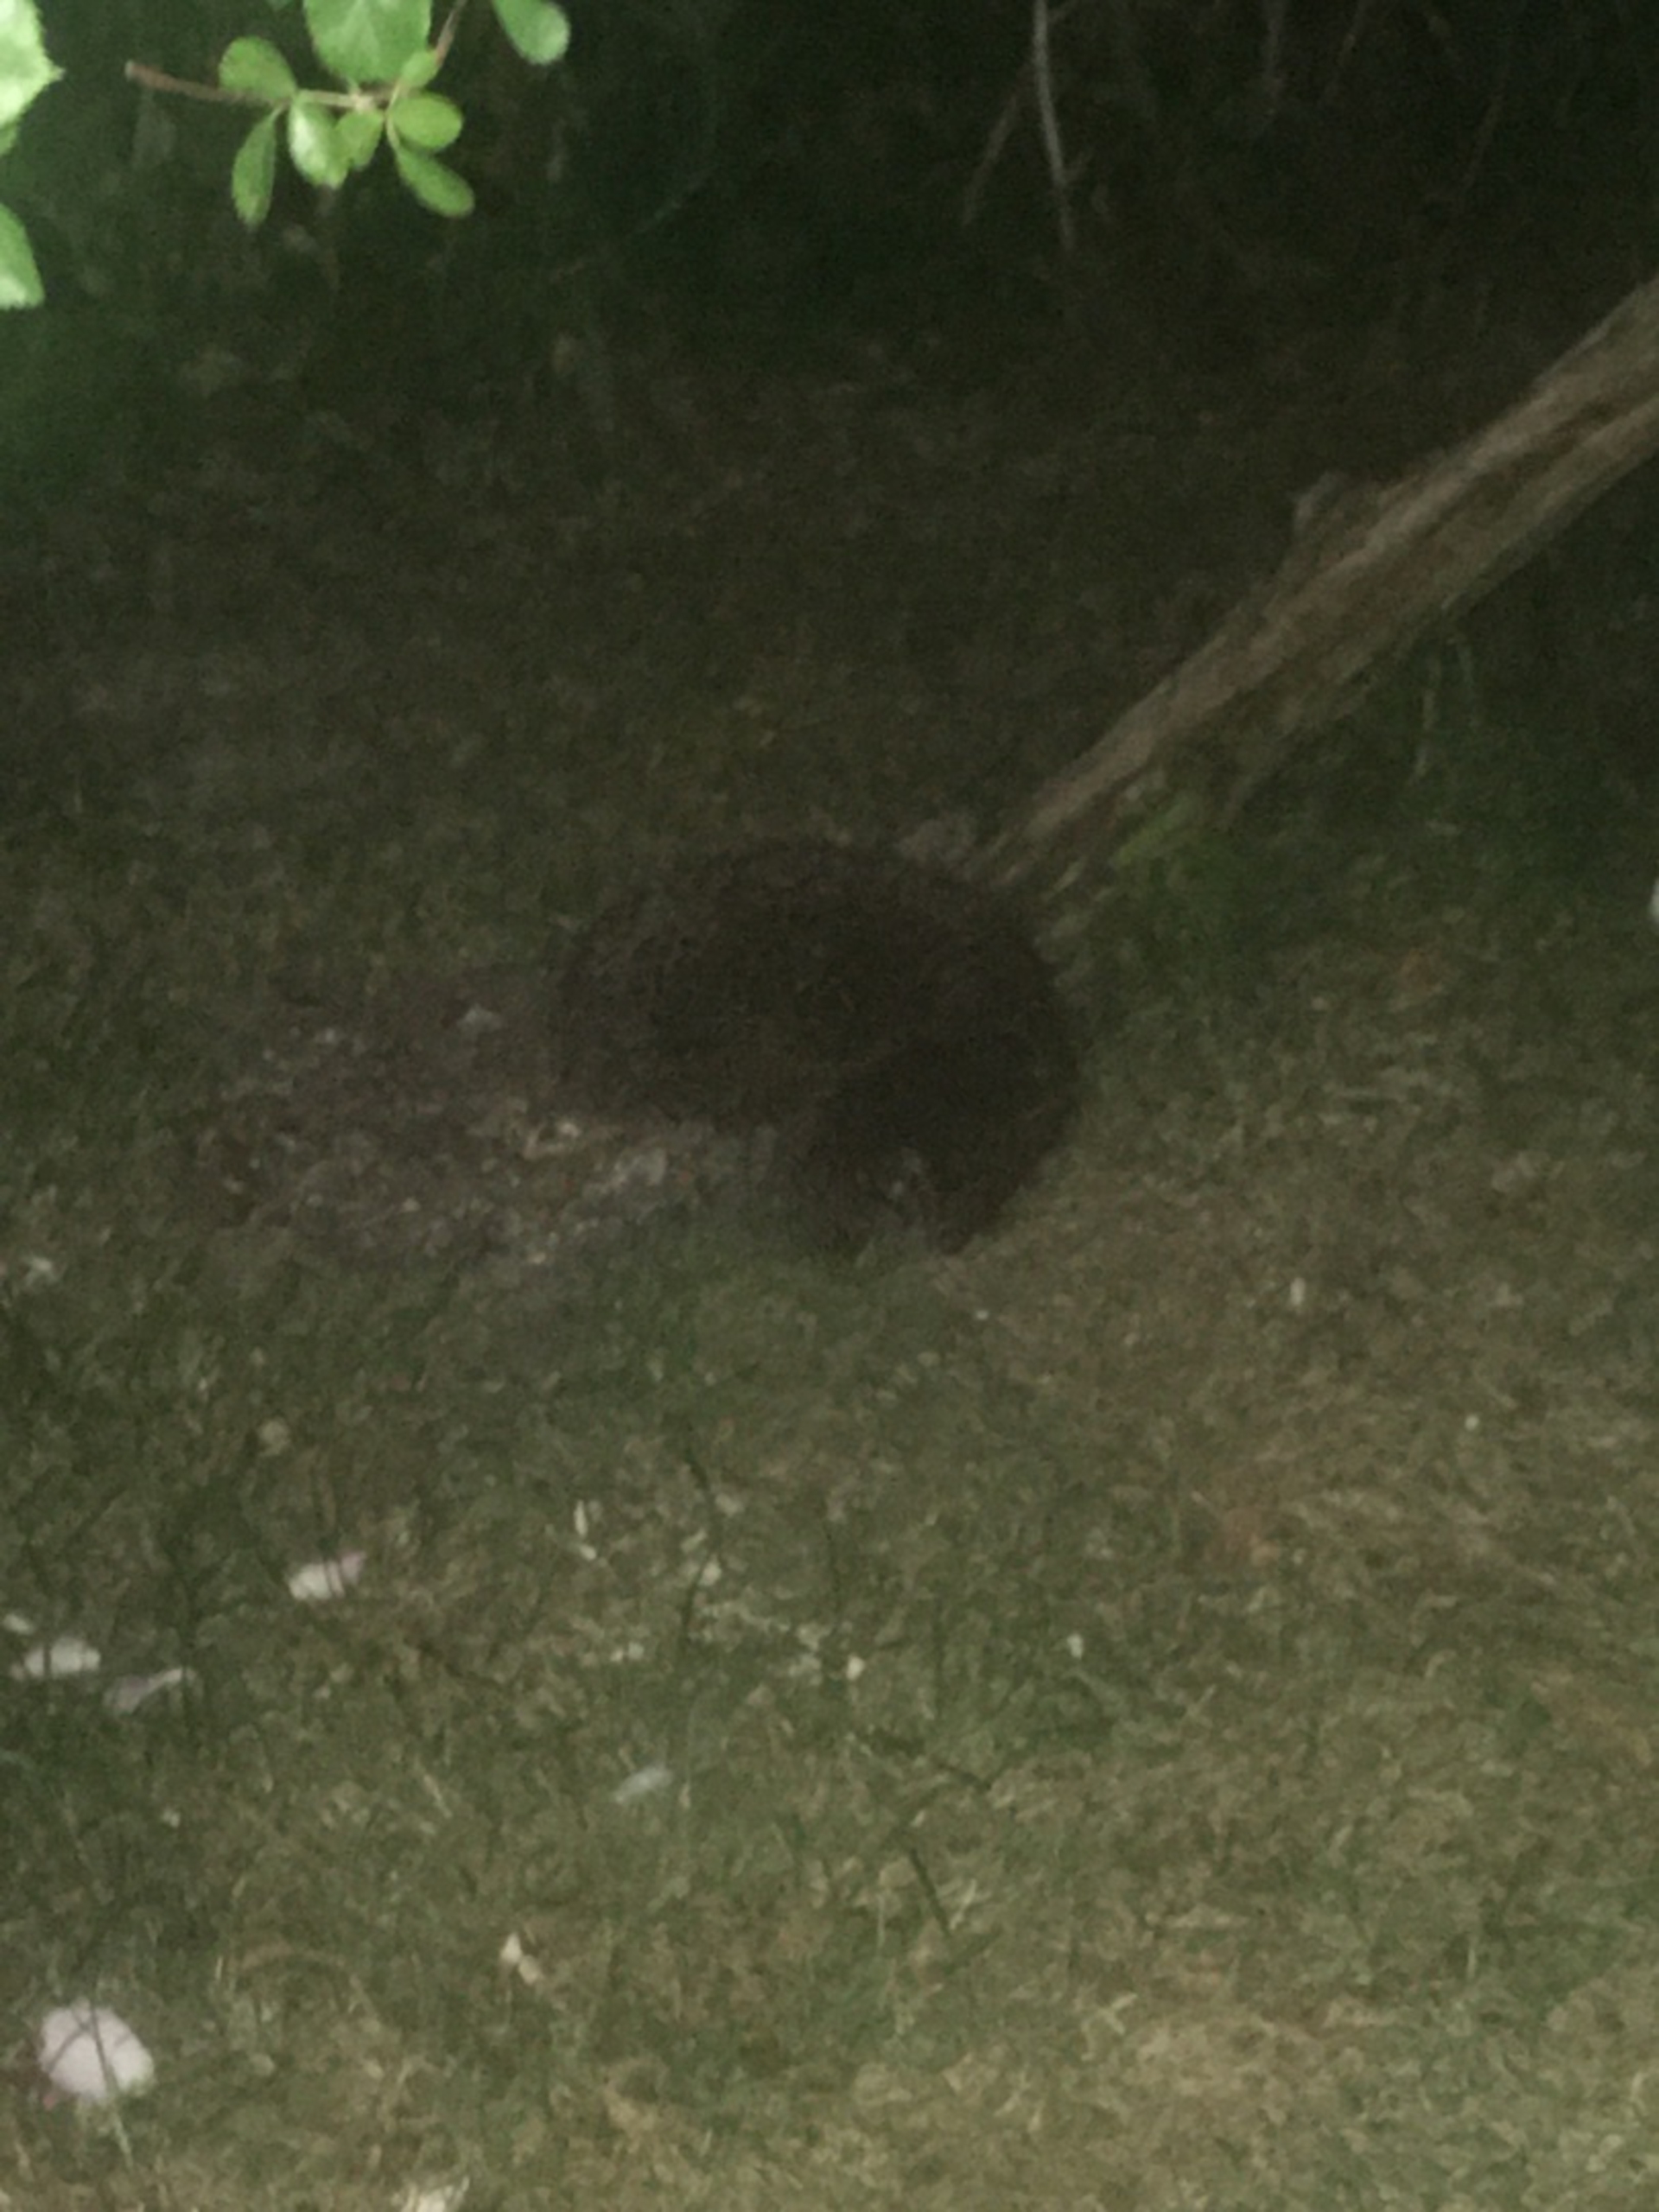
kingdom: Animalia
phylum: Chordata
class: Mammalia
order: Erinaceomorpha
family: Erinaceidae
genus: Erinaceus
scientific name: Erinaceus europaeus
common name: Pindsvin
